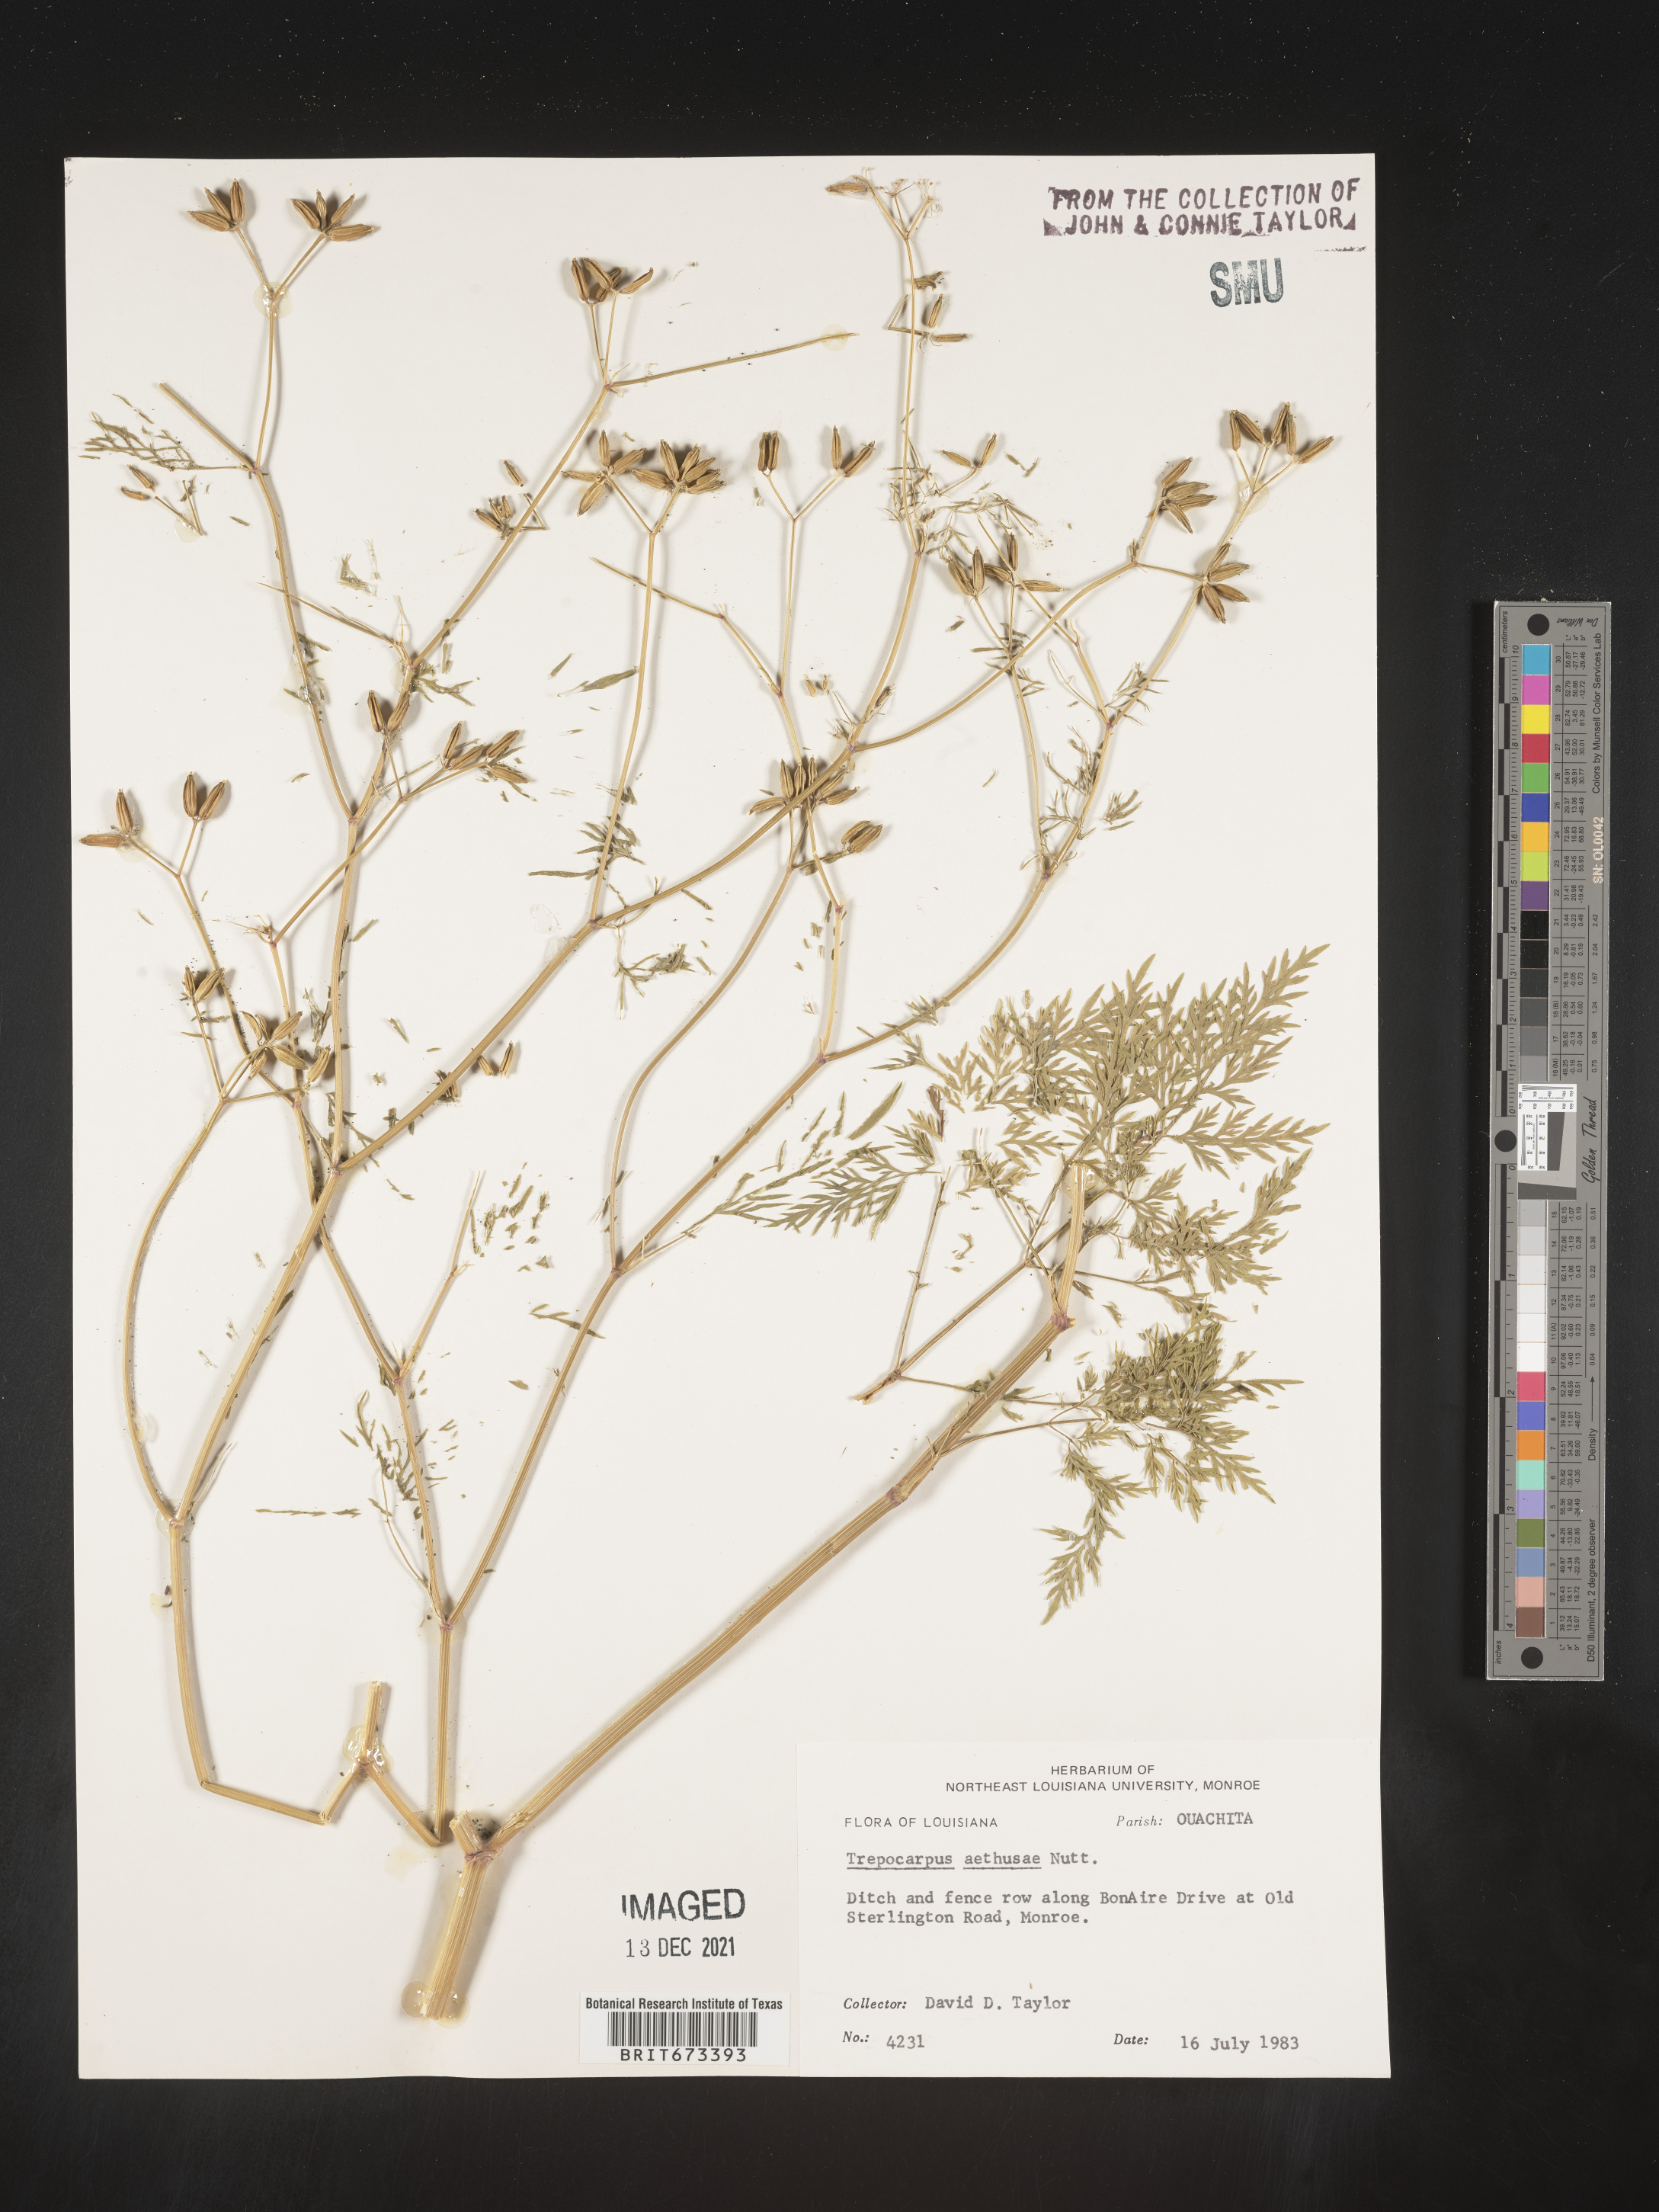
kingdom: Plantae
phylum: Tracheophyta
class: Magnoliopsida
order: Apiales
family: Apiaceae
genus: Trepocarpus
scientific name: Trepocarpus aethusae
